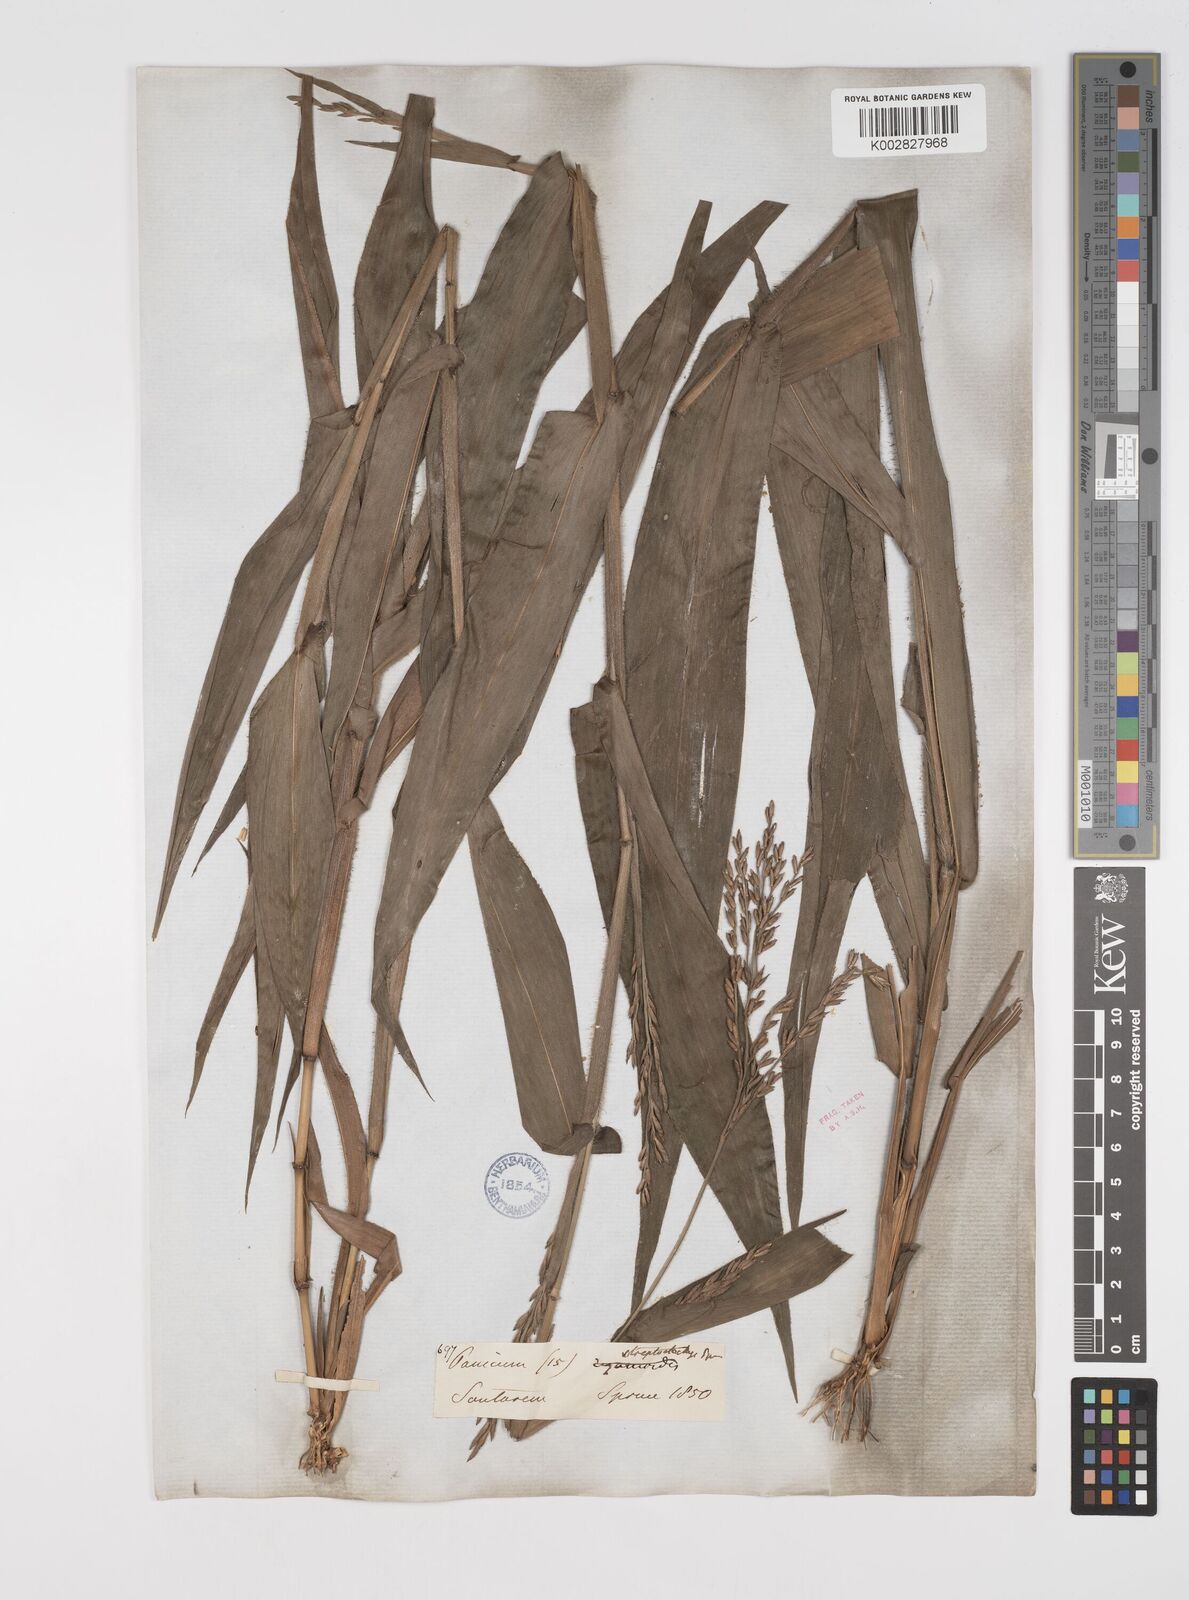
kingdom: Plantae
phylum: Tracheophyta
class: Liliopsida
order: Poales
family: Poaceae
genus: Streptostachys
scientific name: Streptostachys asperifolia
